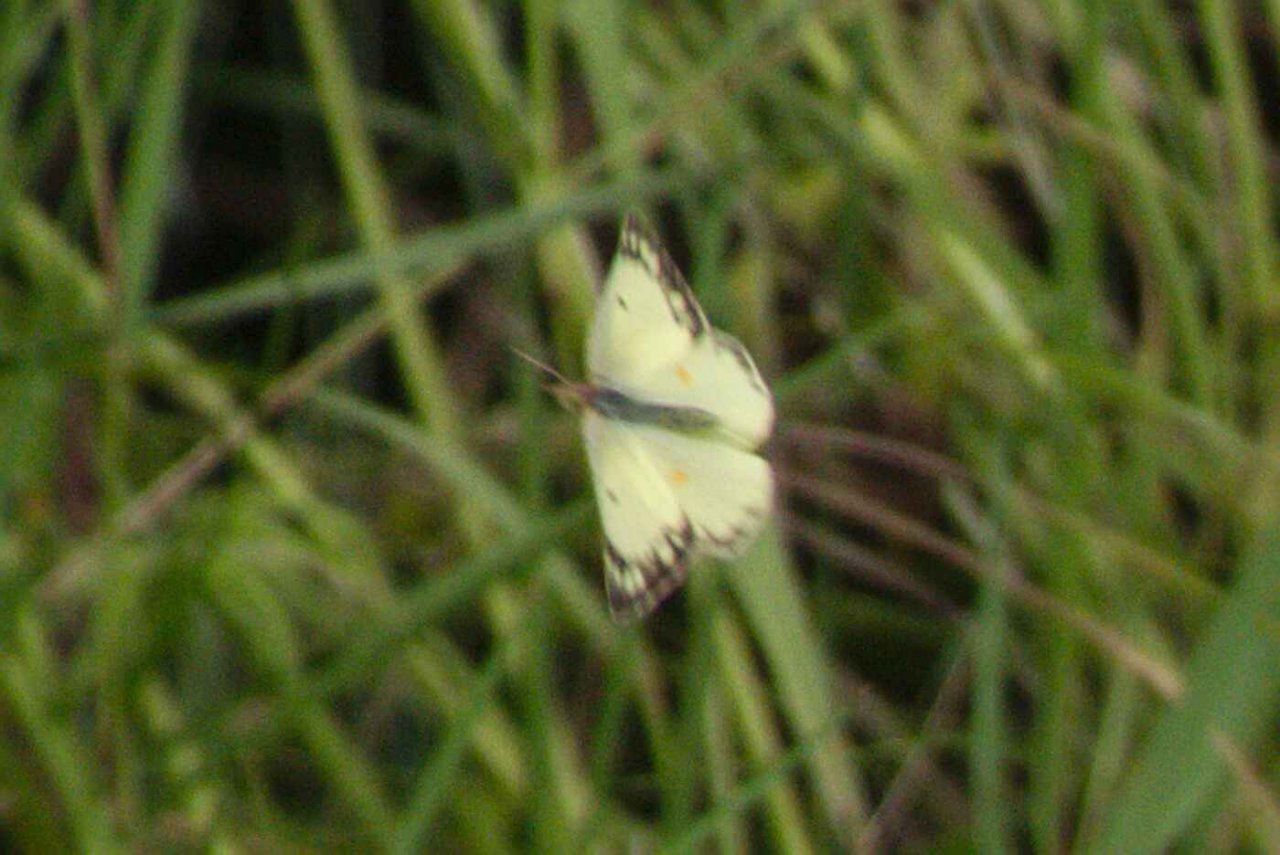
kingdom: Animalia
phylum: Arthropoda
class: Insecta
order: Lepidoptera
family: Pieridae
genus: Colias
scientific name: Colias philodice
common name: Clouded Sulphur
